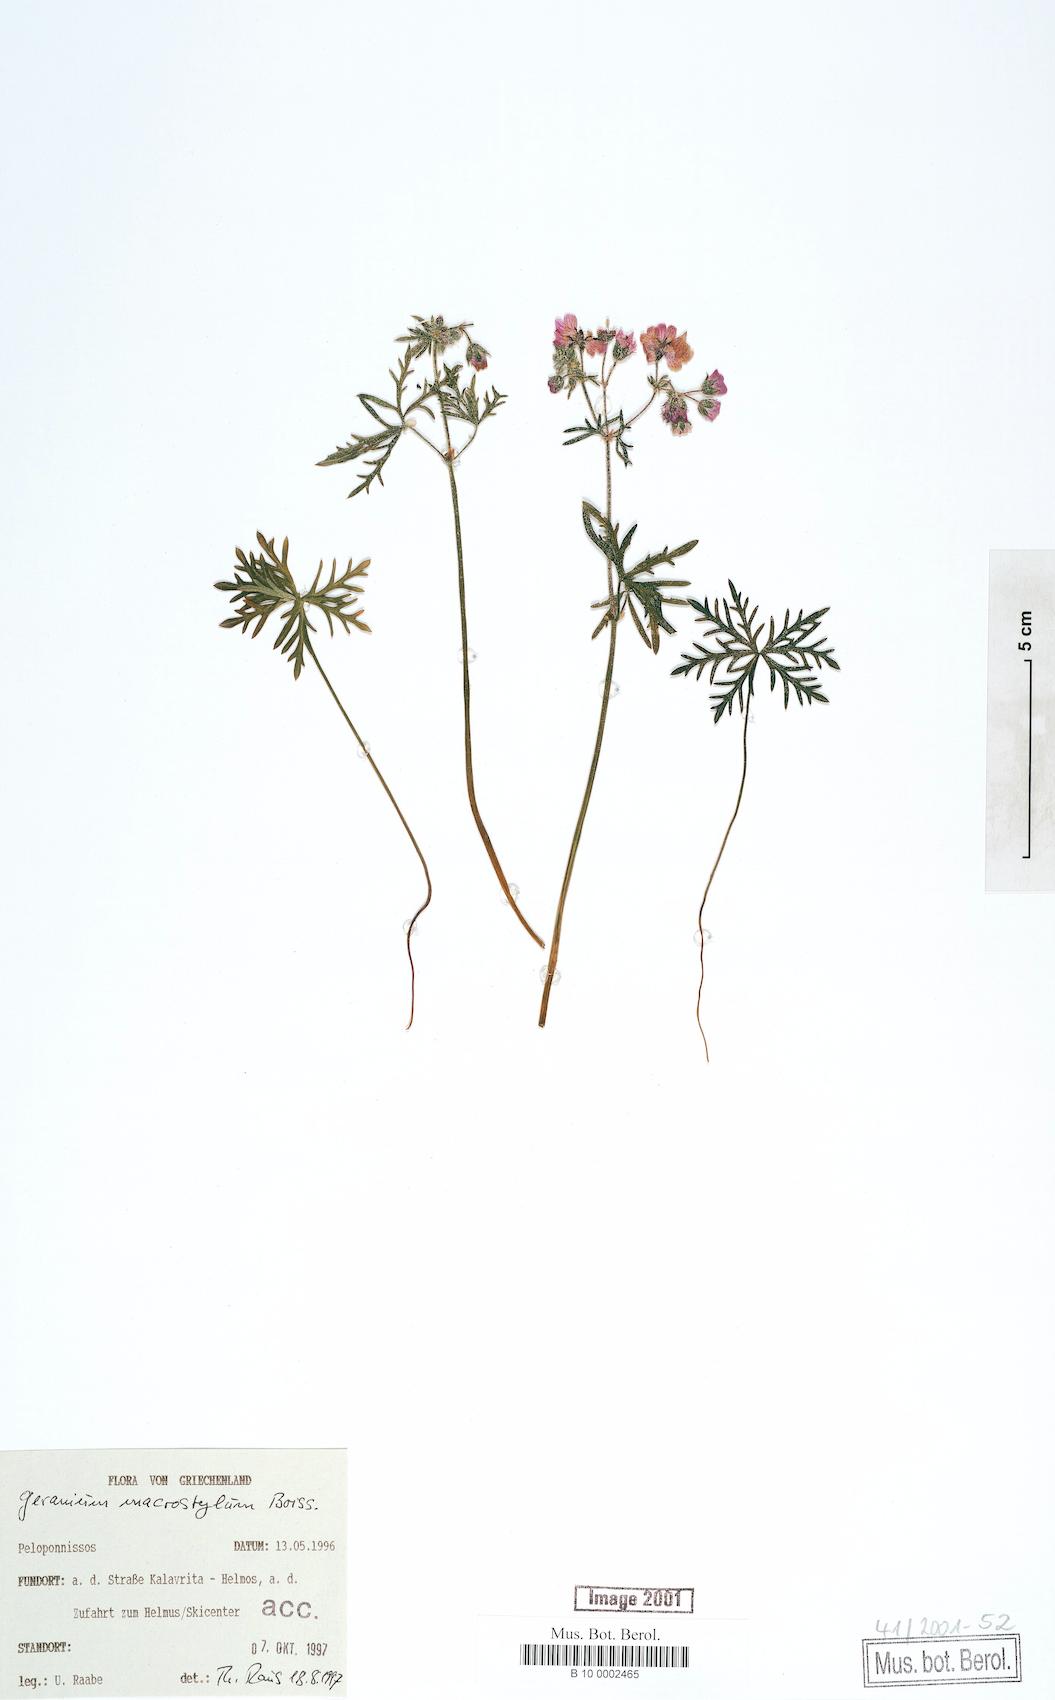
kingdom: Plantae
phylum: Tracheophyta
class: Magnoliopsida
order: Geraniales
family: Geraniaceae
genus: Geranium
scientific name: Geranium macrostylum
